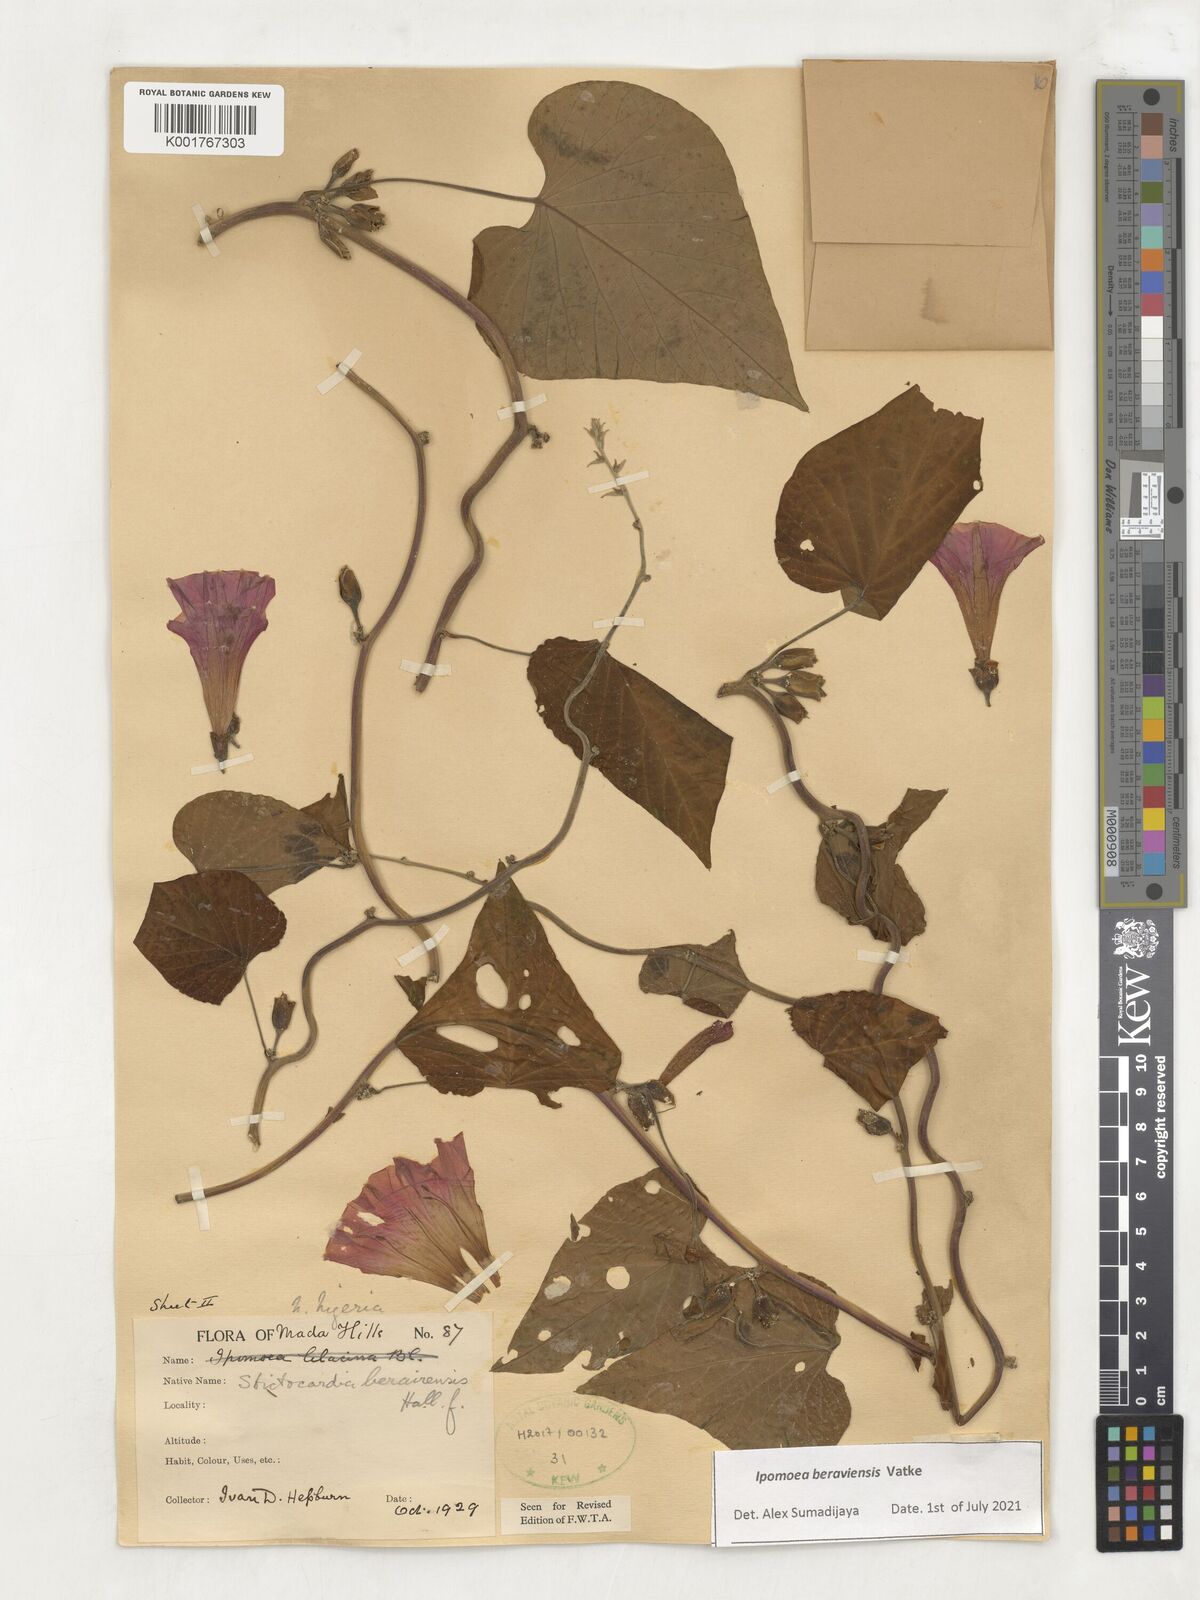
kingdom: Plantae
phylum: Tracheophyta
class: Magnoliopsida
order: Solanales
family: Convolvulaceae
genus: Stictocardia
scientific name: Stictocardia beraviensis
